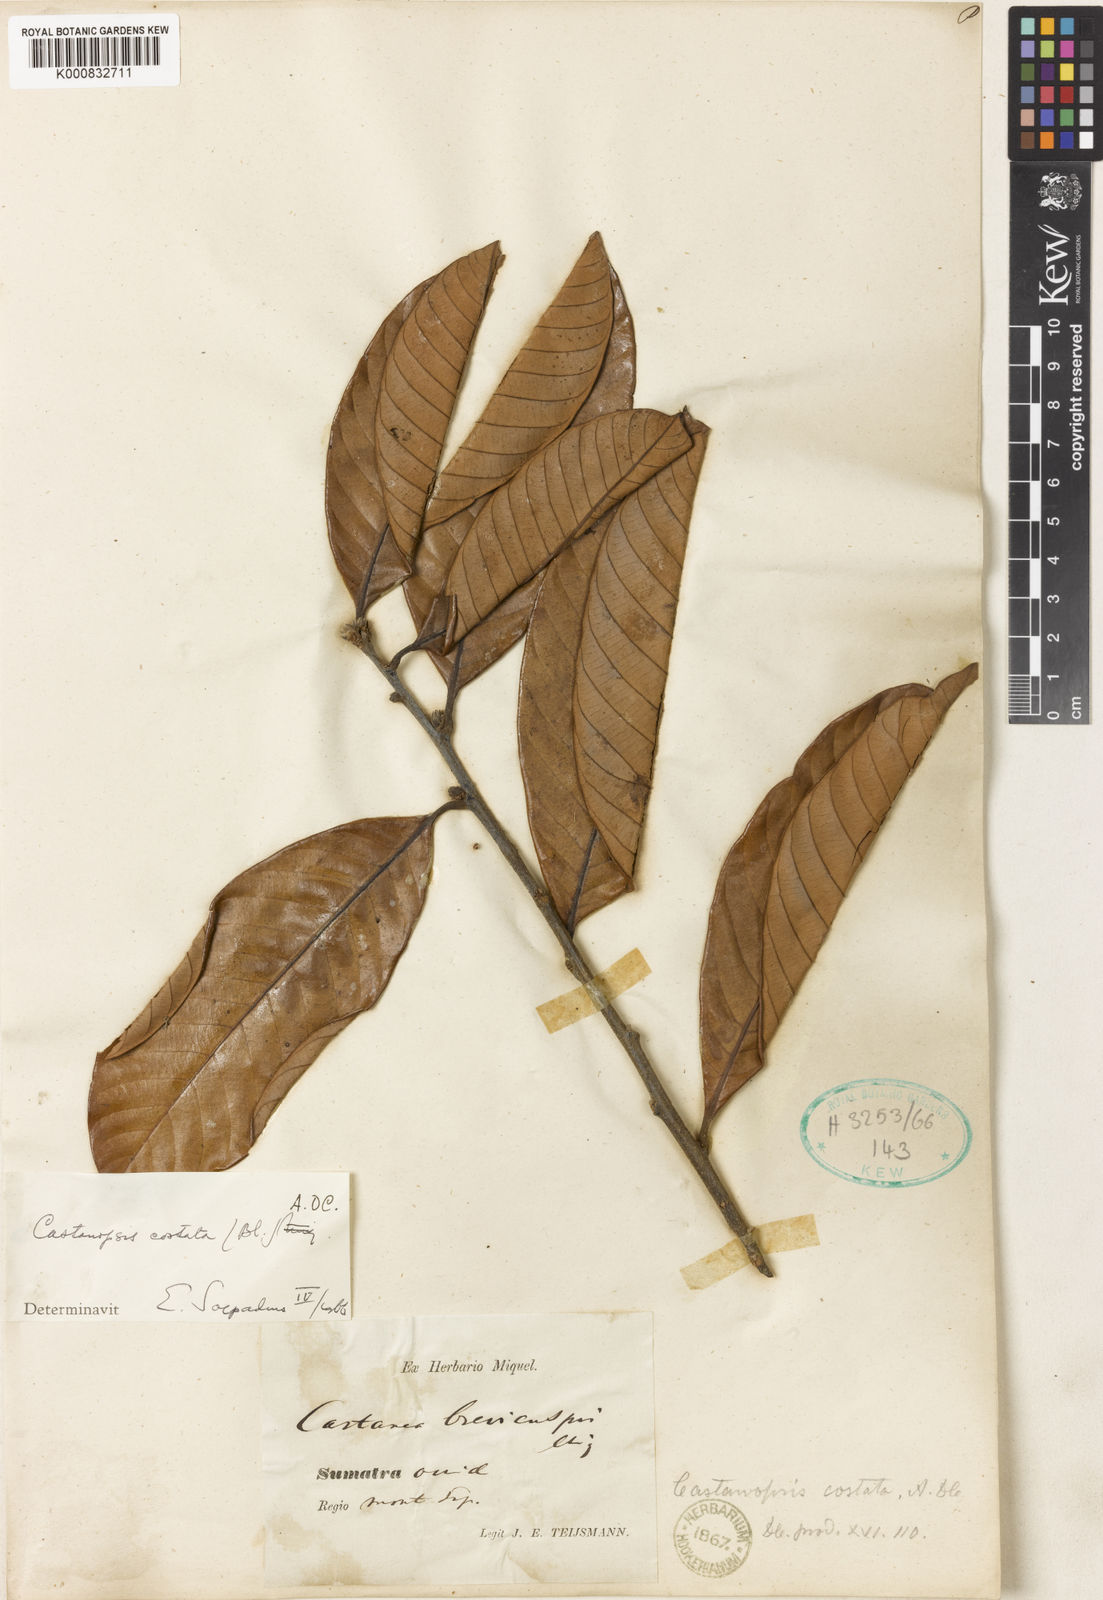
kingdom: Plantae
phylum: Tracheophyta
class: Magnoliopsida
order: Fagales
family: Fagaceae
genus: Castanopsis
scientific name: Castanopsis costata
